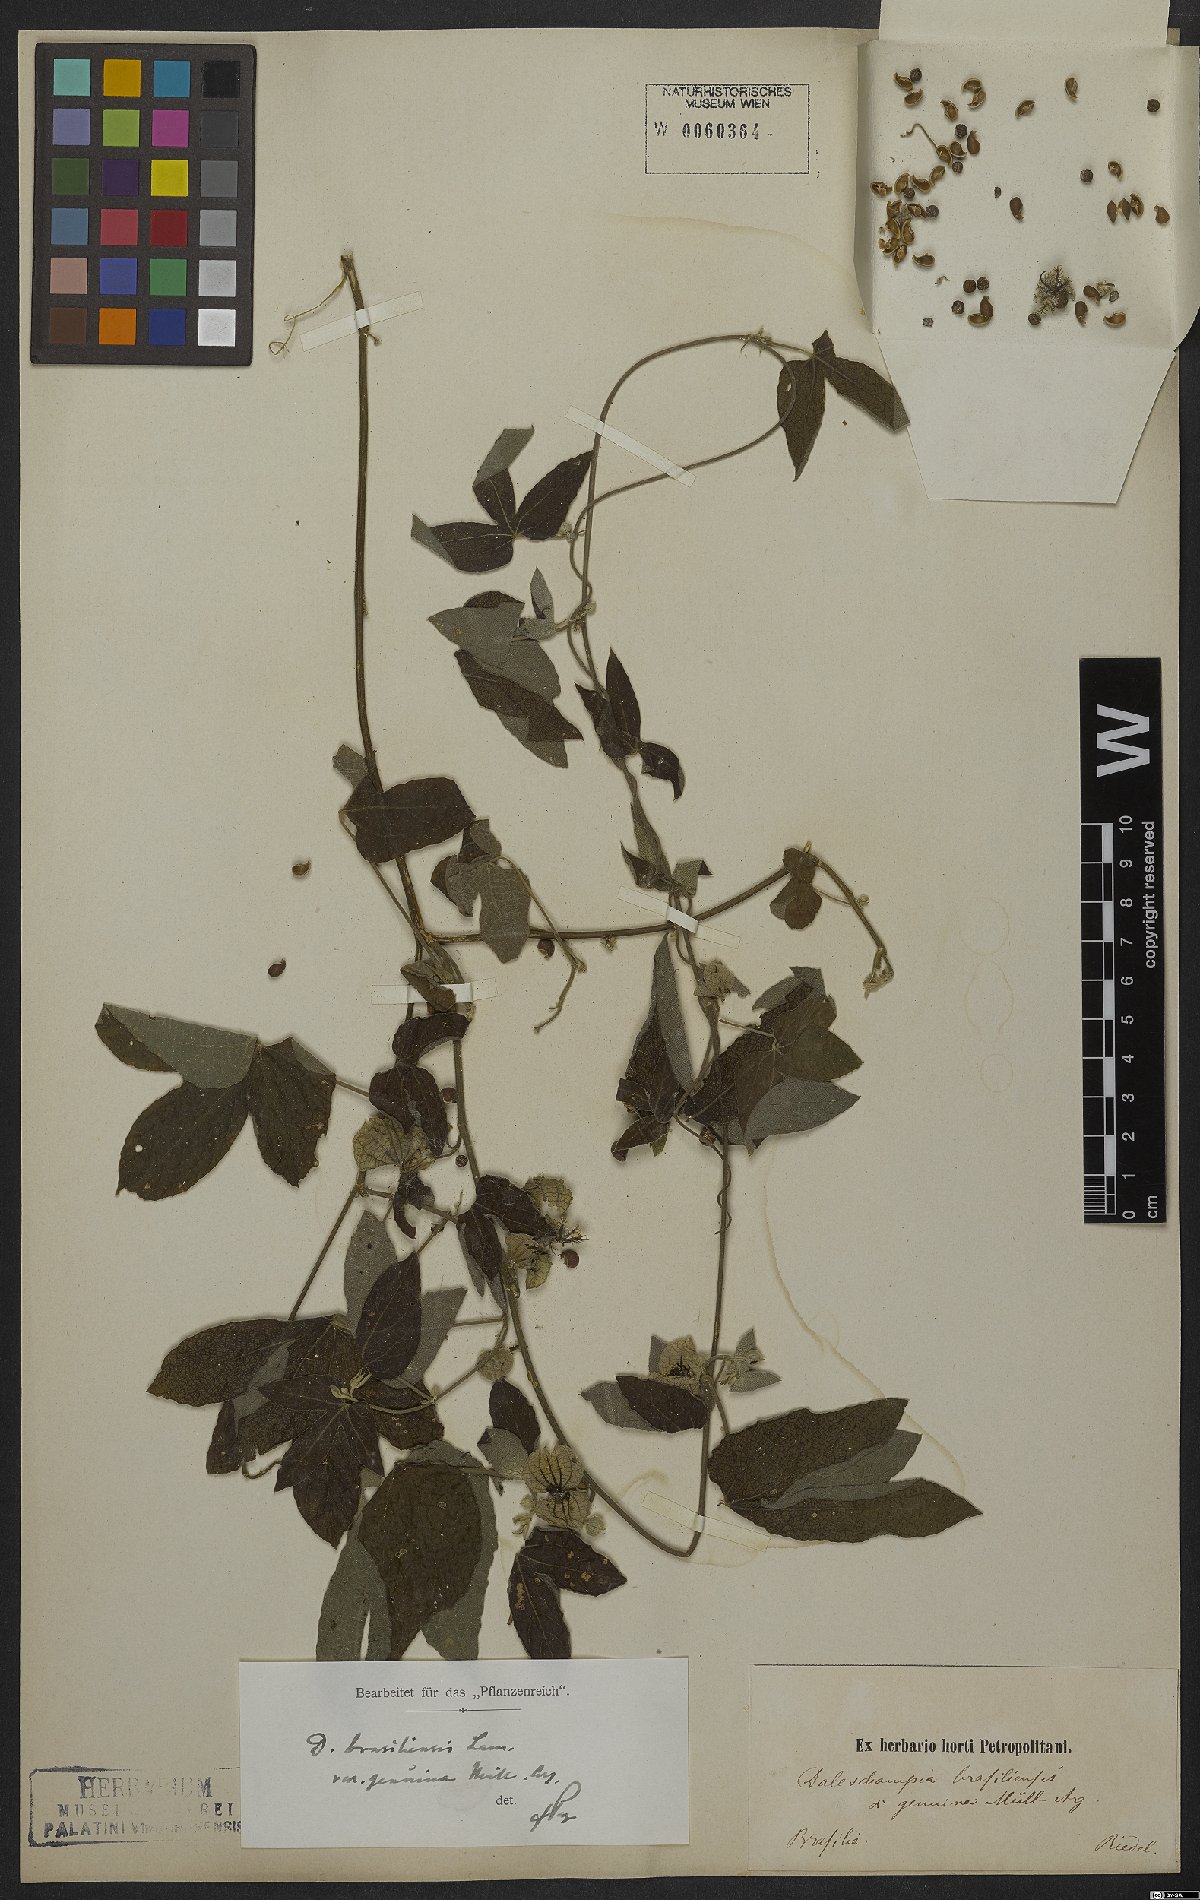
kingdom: Plantae
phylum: Tracheophyta
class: Magnoliopsida
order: Malpighiales
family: Euphorbiaceae
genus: Dalechampia
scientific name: Dalechampia brasiliensis
